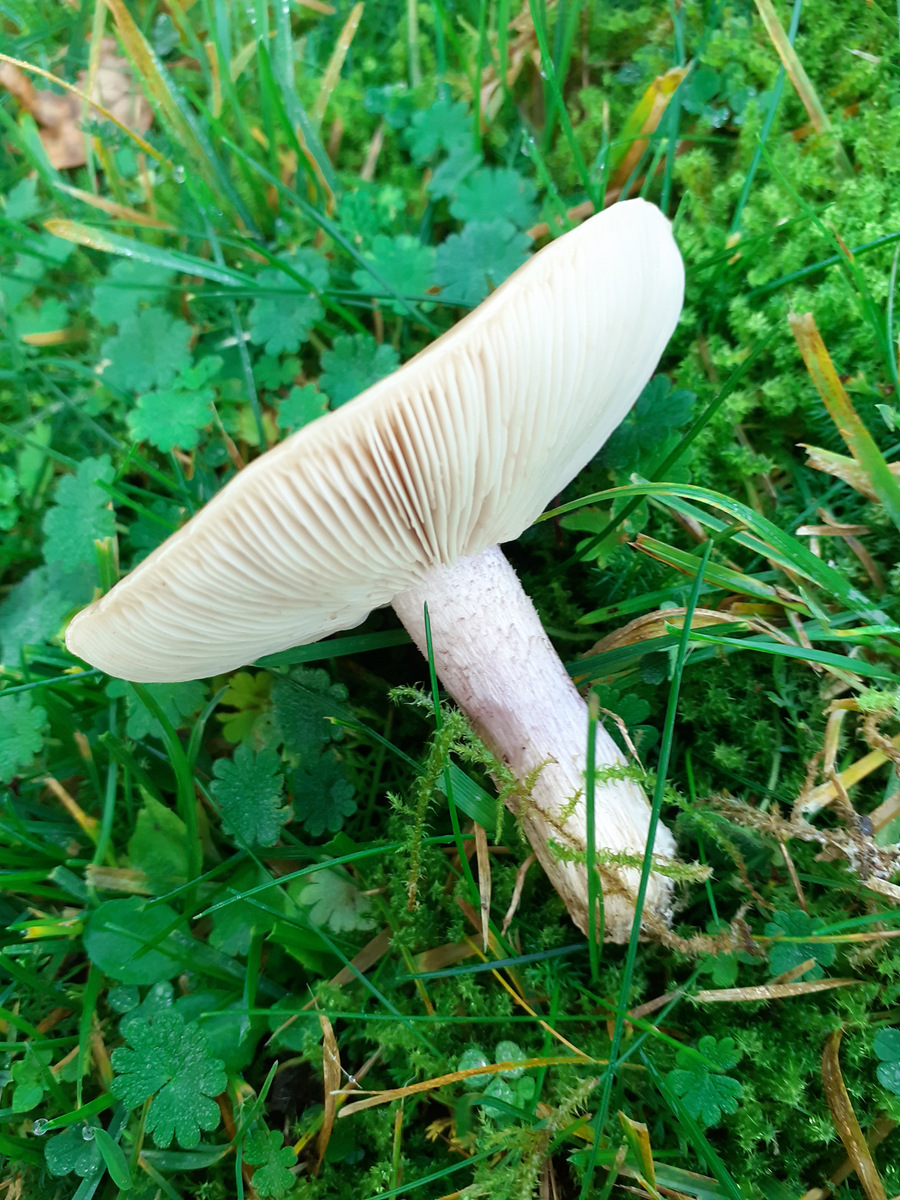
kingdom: Fungi
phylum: Basidiomycota
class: Agaricomycetes
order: Agaricales
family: Tricholomataceae
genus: Lepista
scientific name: Lepista personata
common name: bleg hekseringshat
